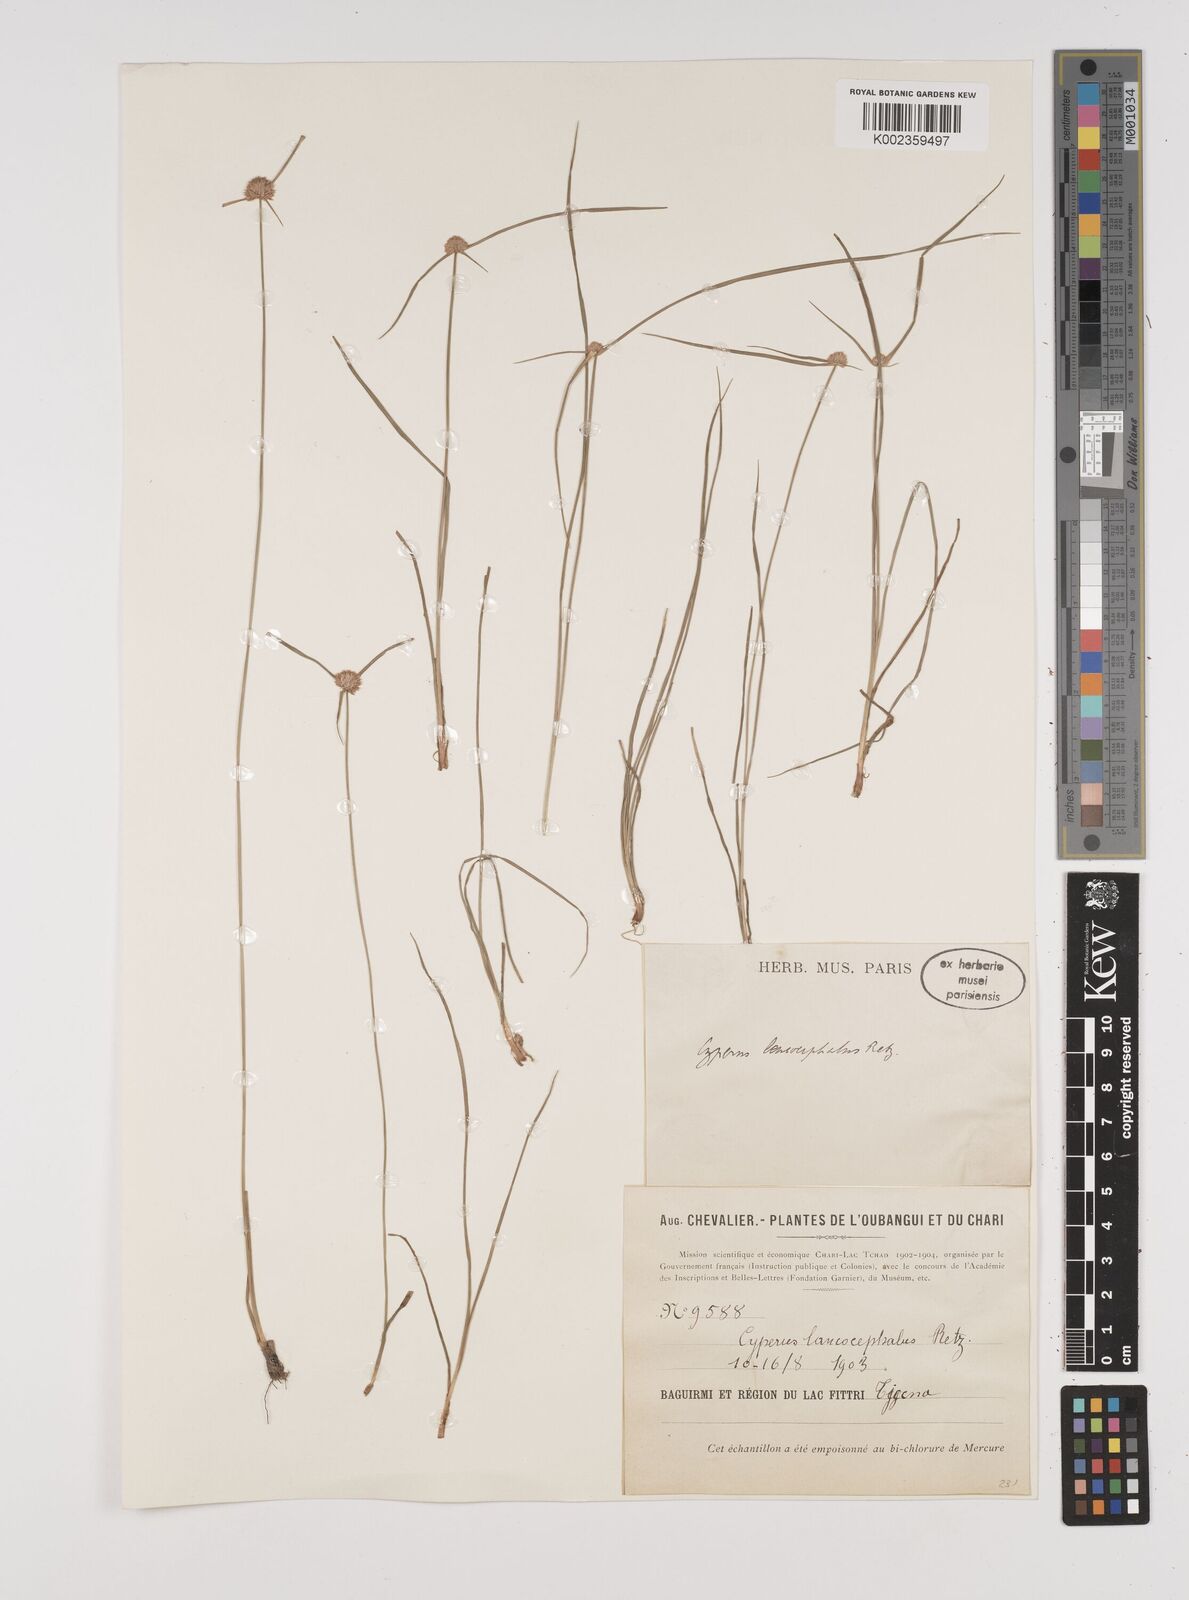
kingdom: Plantae
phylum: Tracheophyta
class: Liliopsida
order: Poales
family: Cyperaceae
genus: Cyperus
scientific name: Cyperus pulchellus
